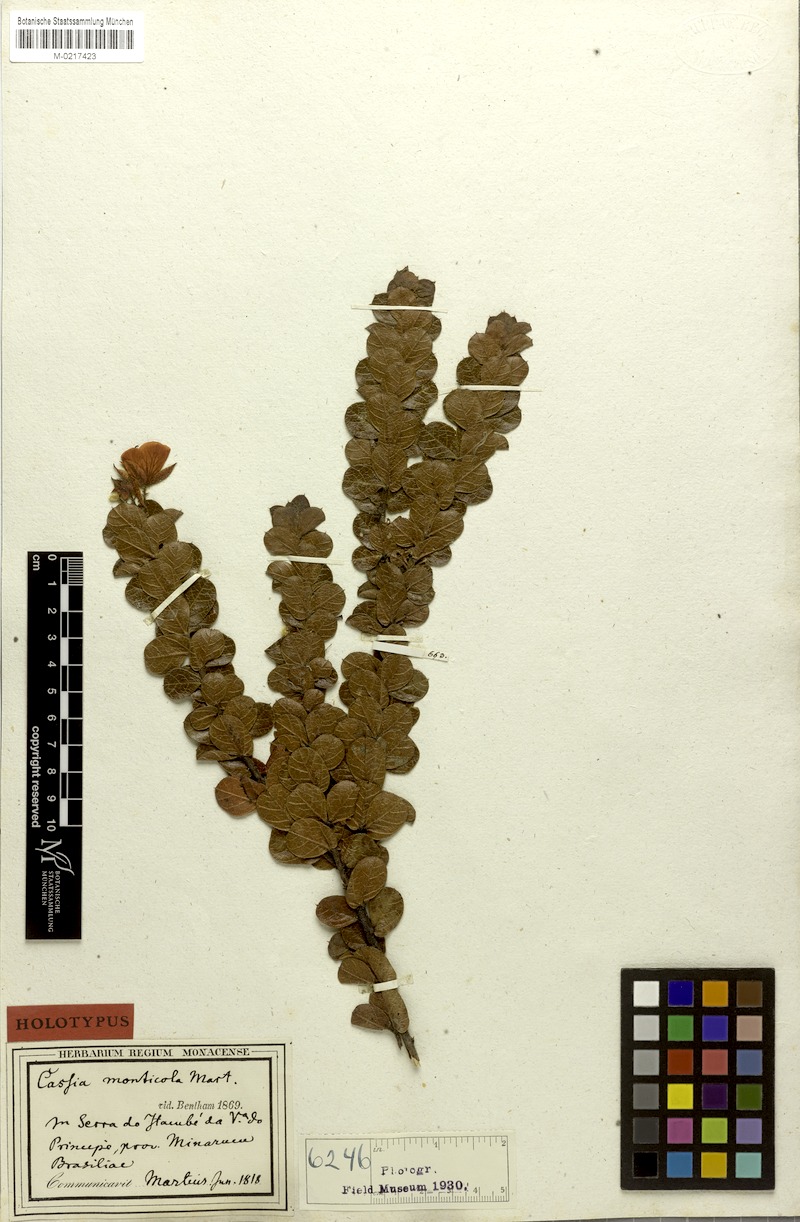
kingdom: Plantae
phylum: Tracheophyta
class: Magnoliopsida
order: Fabales
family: Fabaceae
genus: Chamaecrista
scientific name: Chamaecrista monticola
